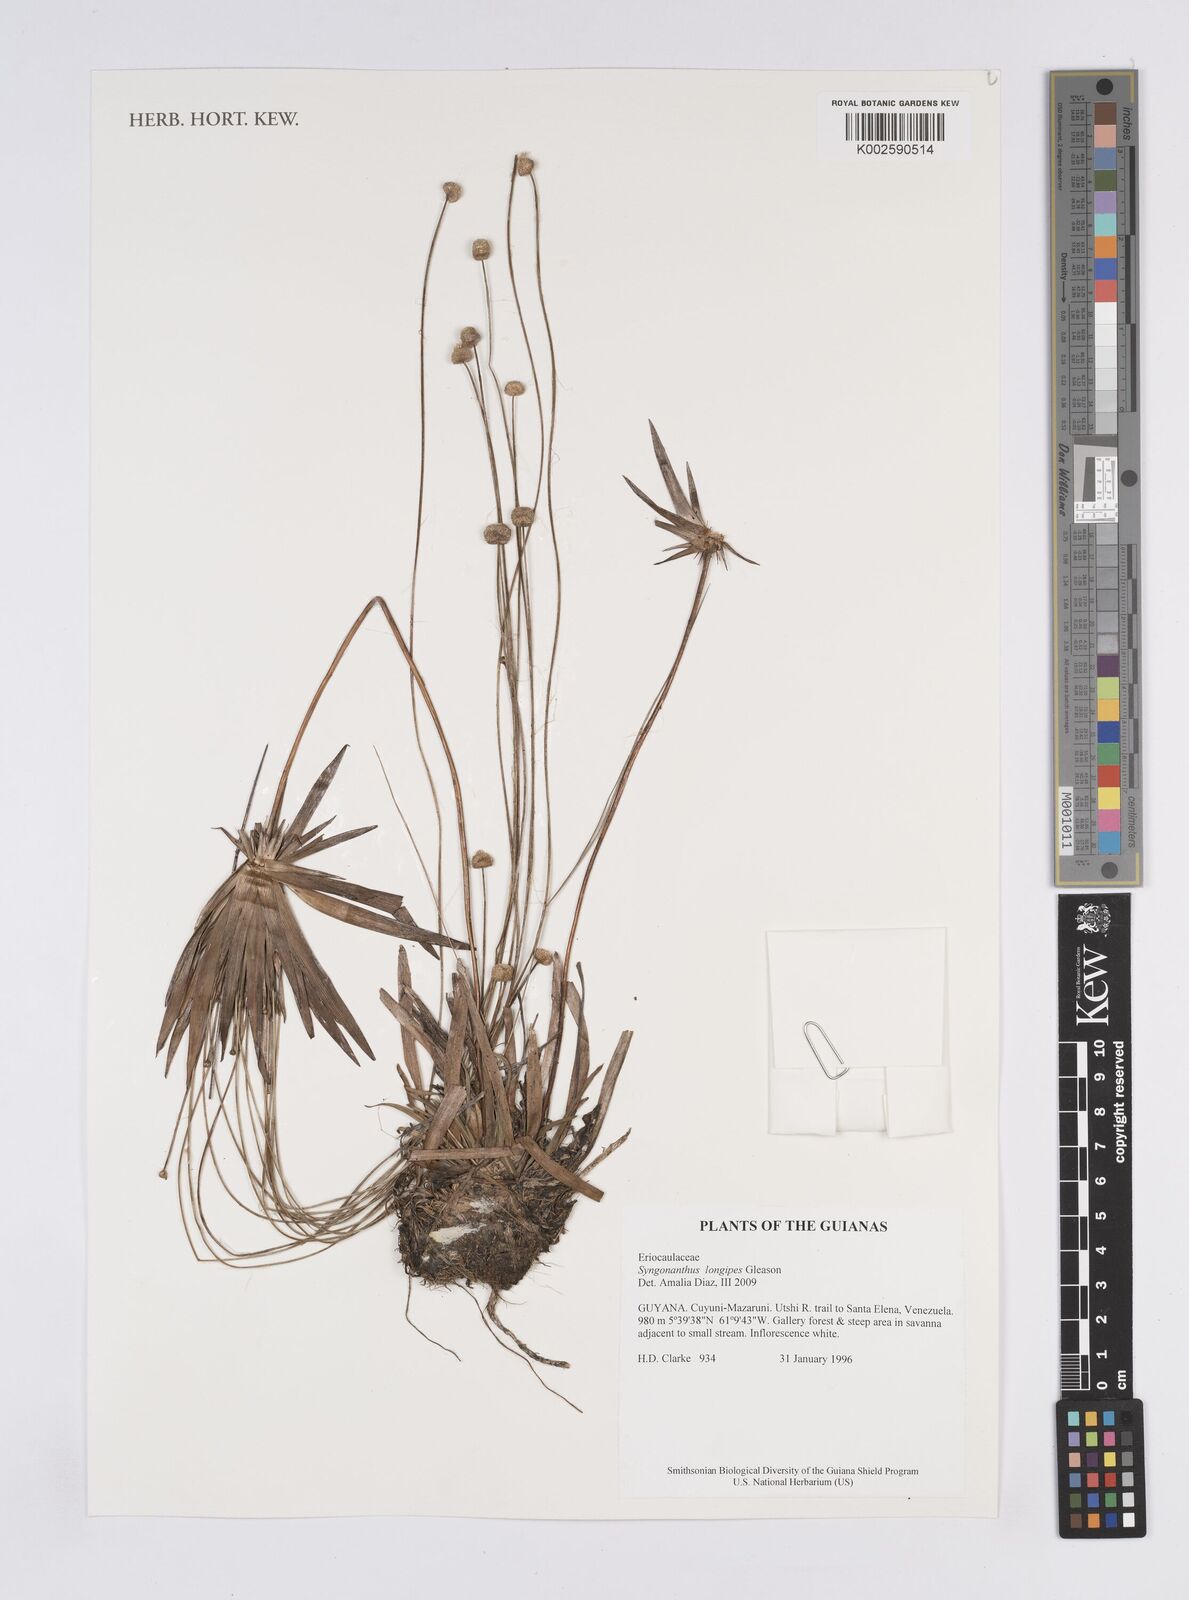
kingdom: Plantae
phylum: Tracheophyta
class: Liliopsida
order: Poales
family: Eriocaulaceae
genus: Syngonanthus
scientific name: Syngonanthus longipes
